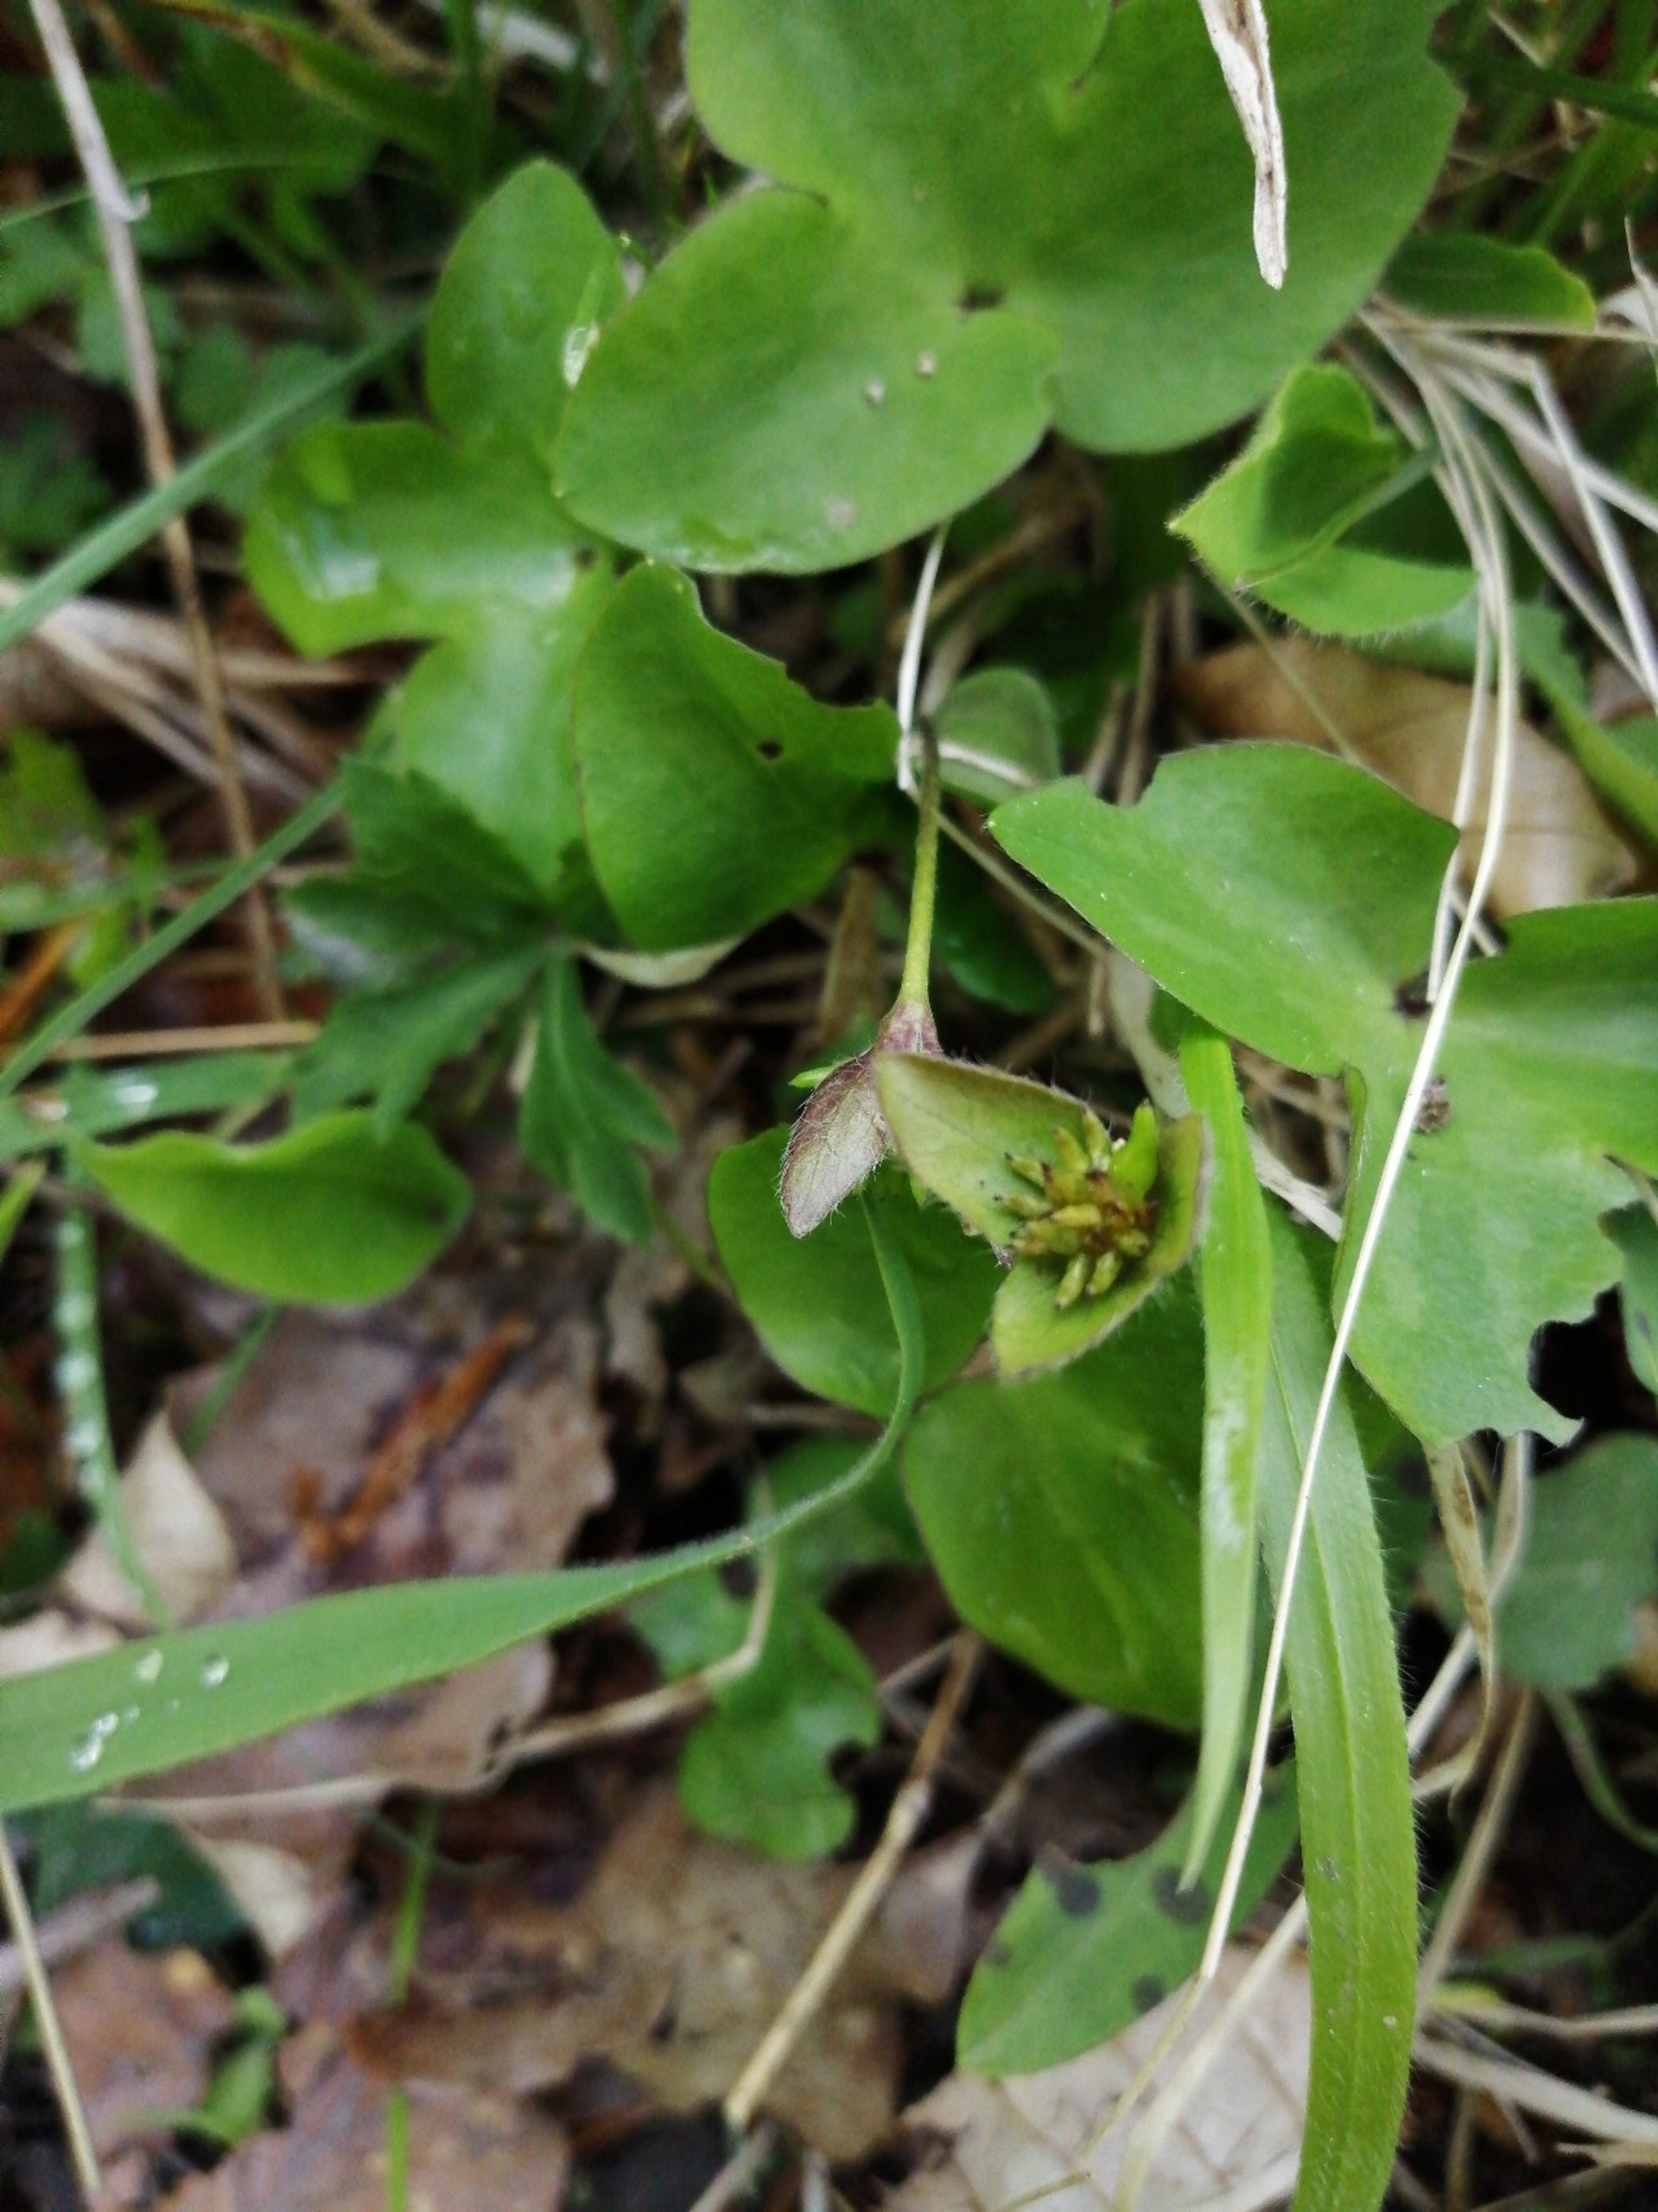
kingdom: Plantae
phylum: Tracheophyta
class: Magnoliopsida
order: Ranunculales
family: Ranunculaceae
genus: Hepatica
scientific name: Hepatica nobilis
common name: Blå anemone
